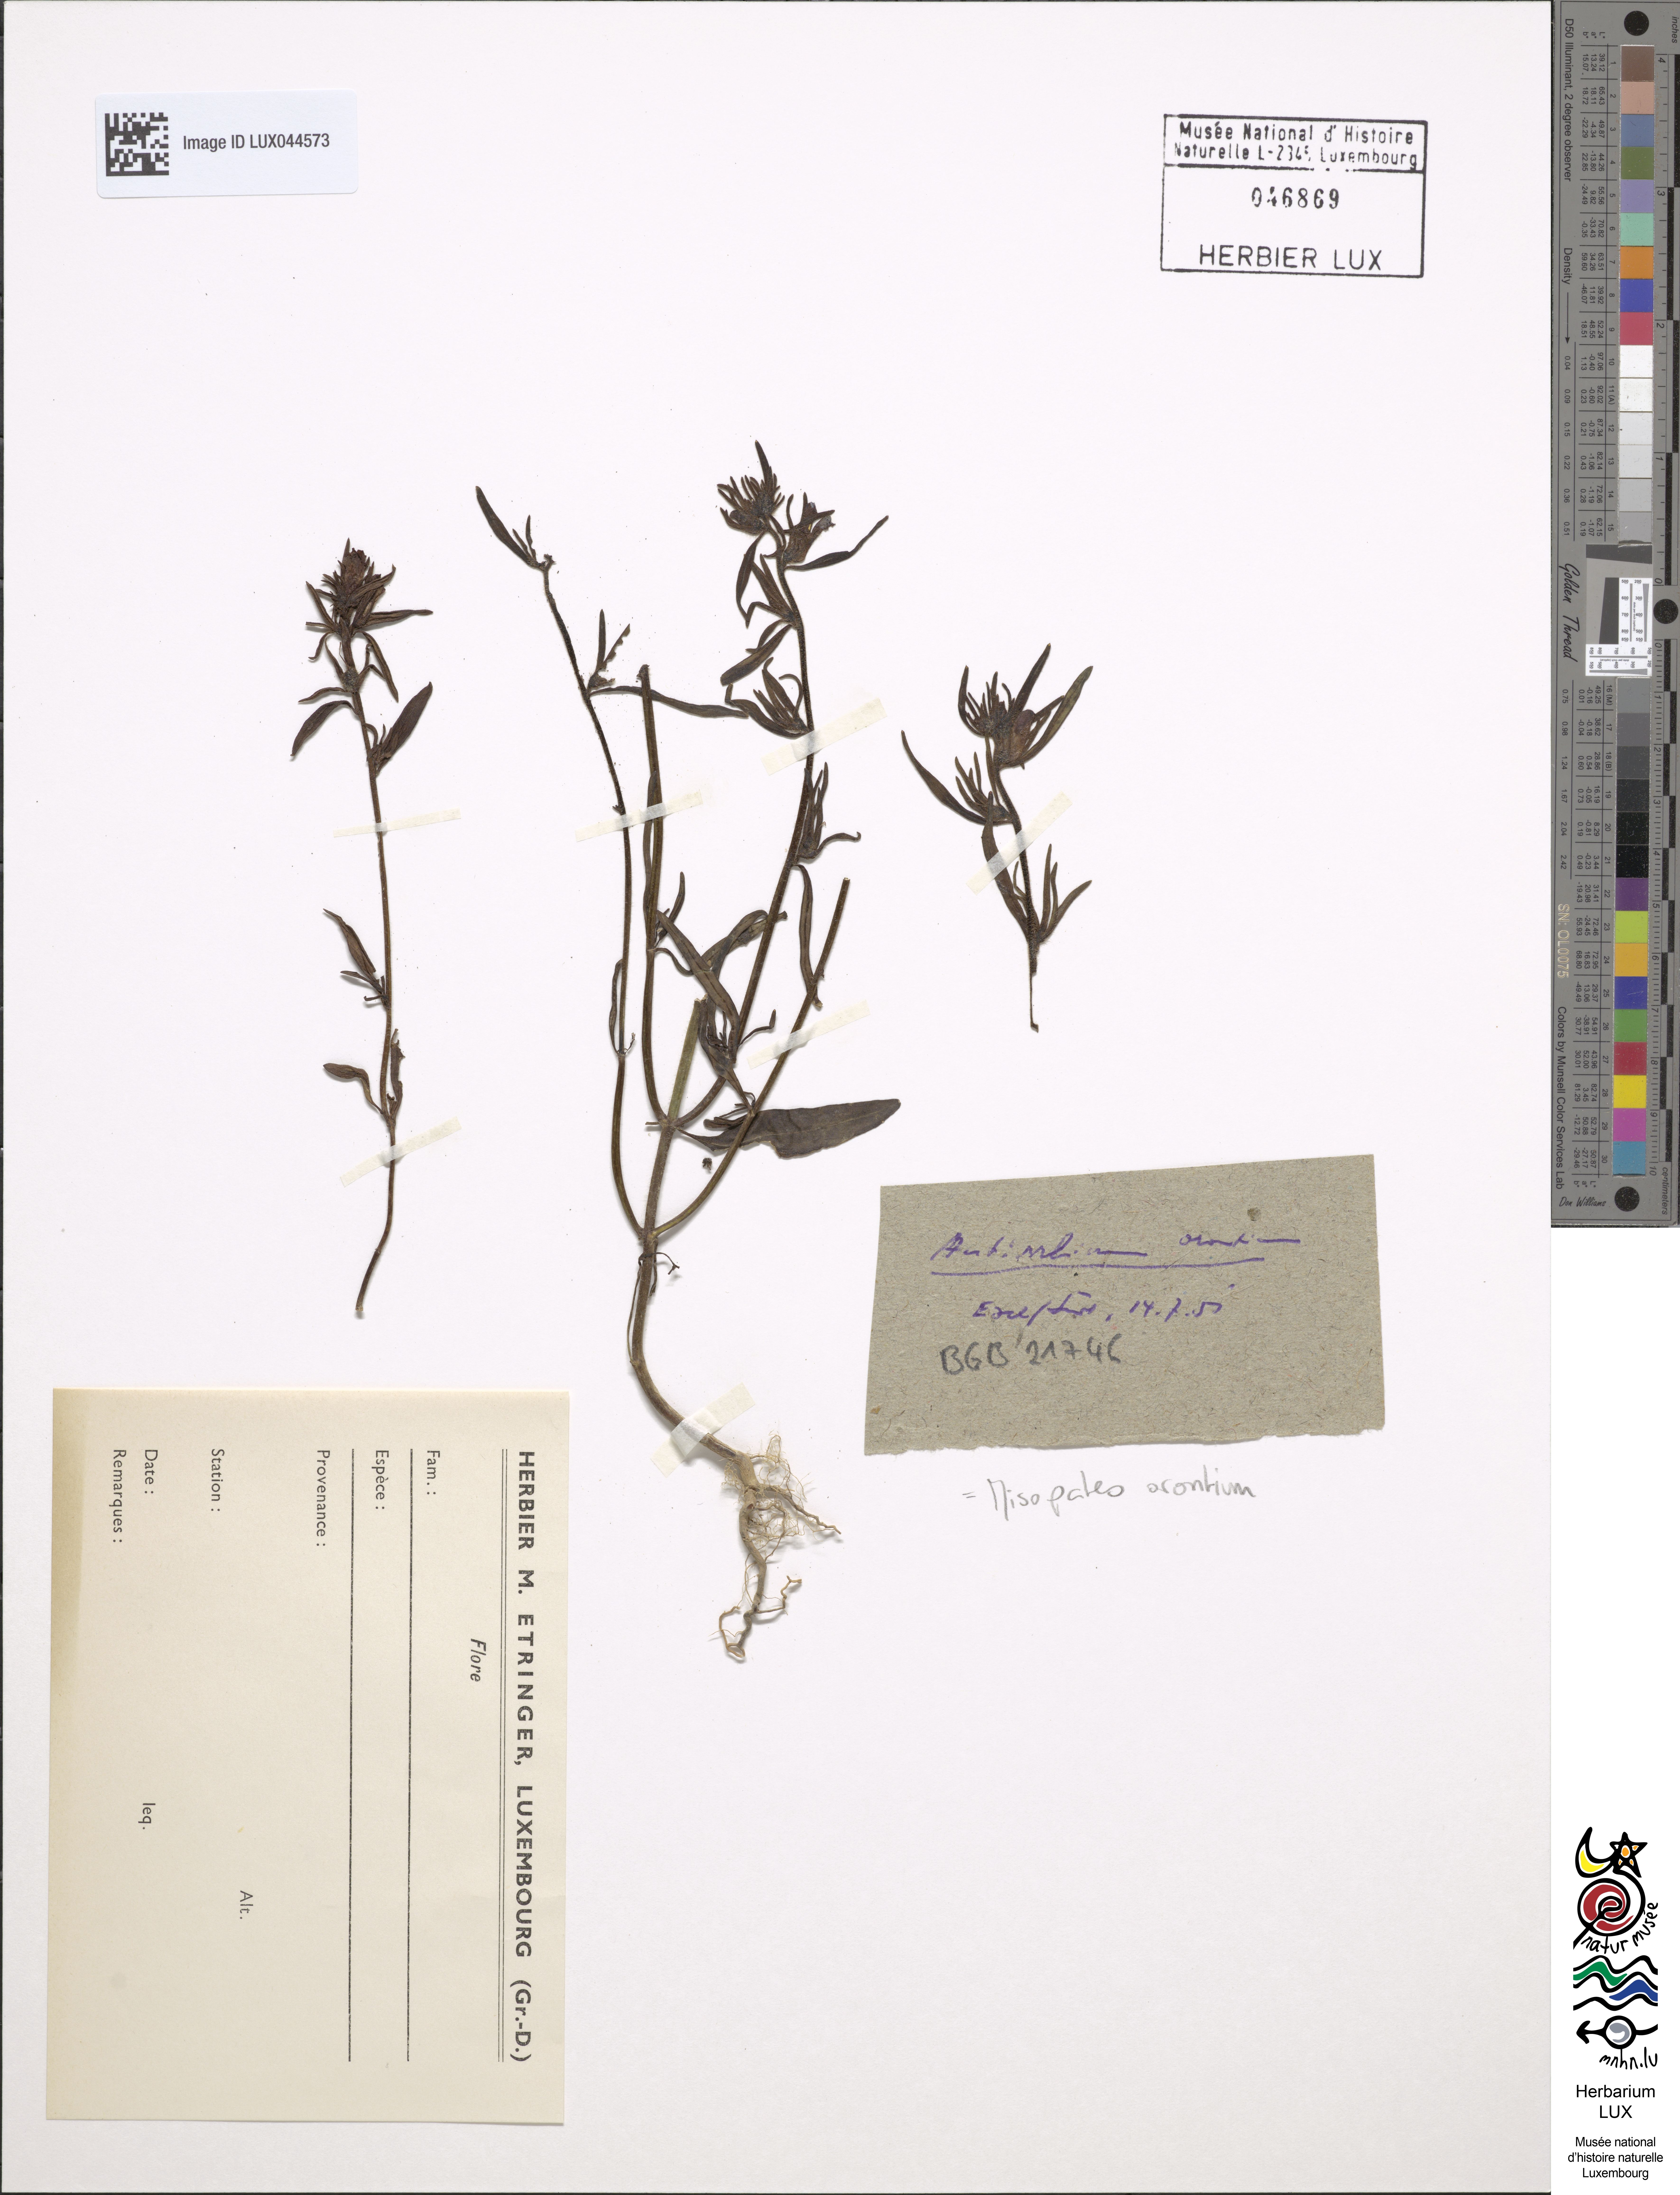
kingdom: Plantae
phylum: Tracheophyta
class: Magnoliopsida
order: Lamiales
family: Plantaginaceae
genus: Misopates
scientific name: Misopates orontium
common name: Weasel's-snout
